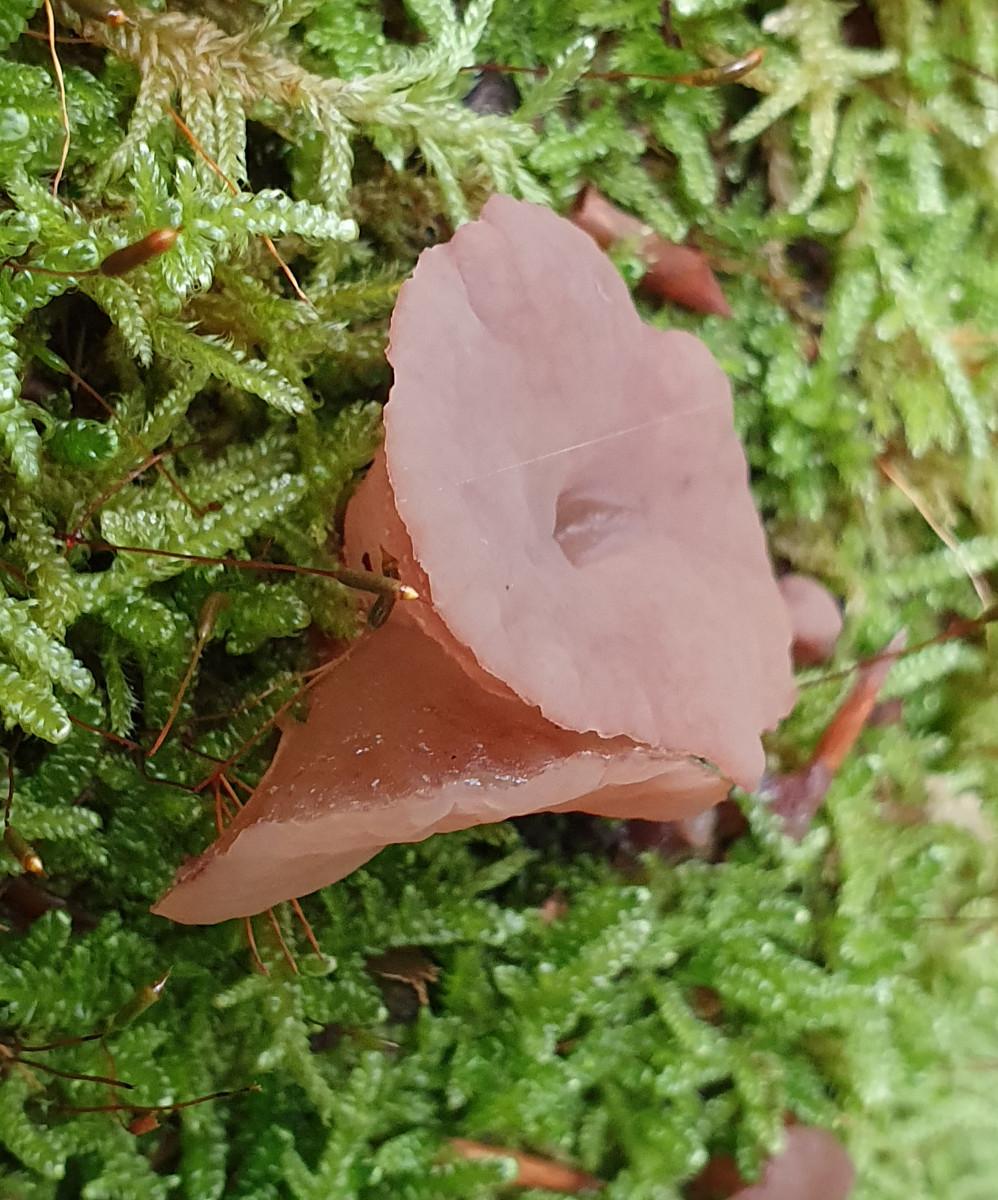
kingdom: Fungi
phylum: Ascomycota
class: Leotiomycetes
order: Helotiales
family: Gelatinodiscaceae
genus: Neobulgaria
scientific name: Neobulgaria pura
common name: bleg bævreskive
